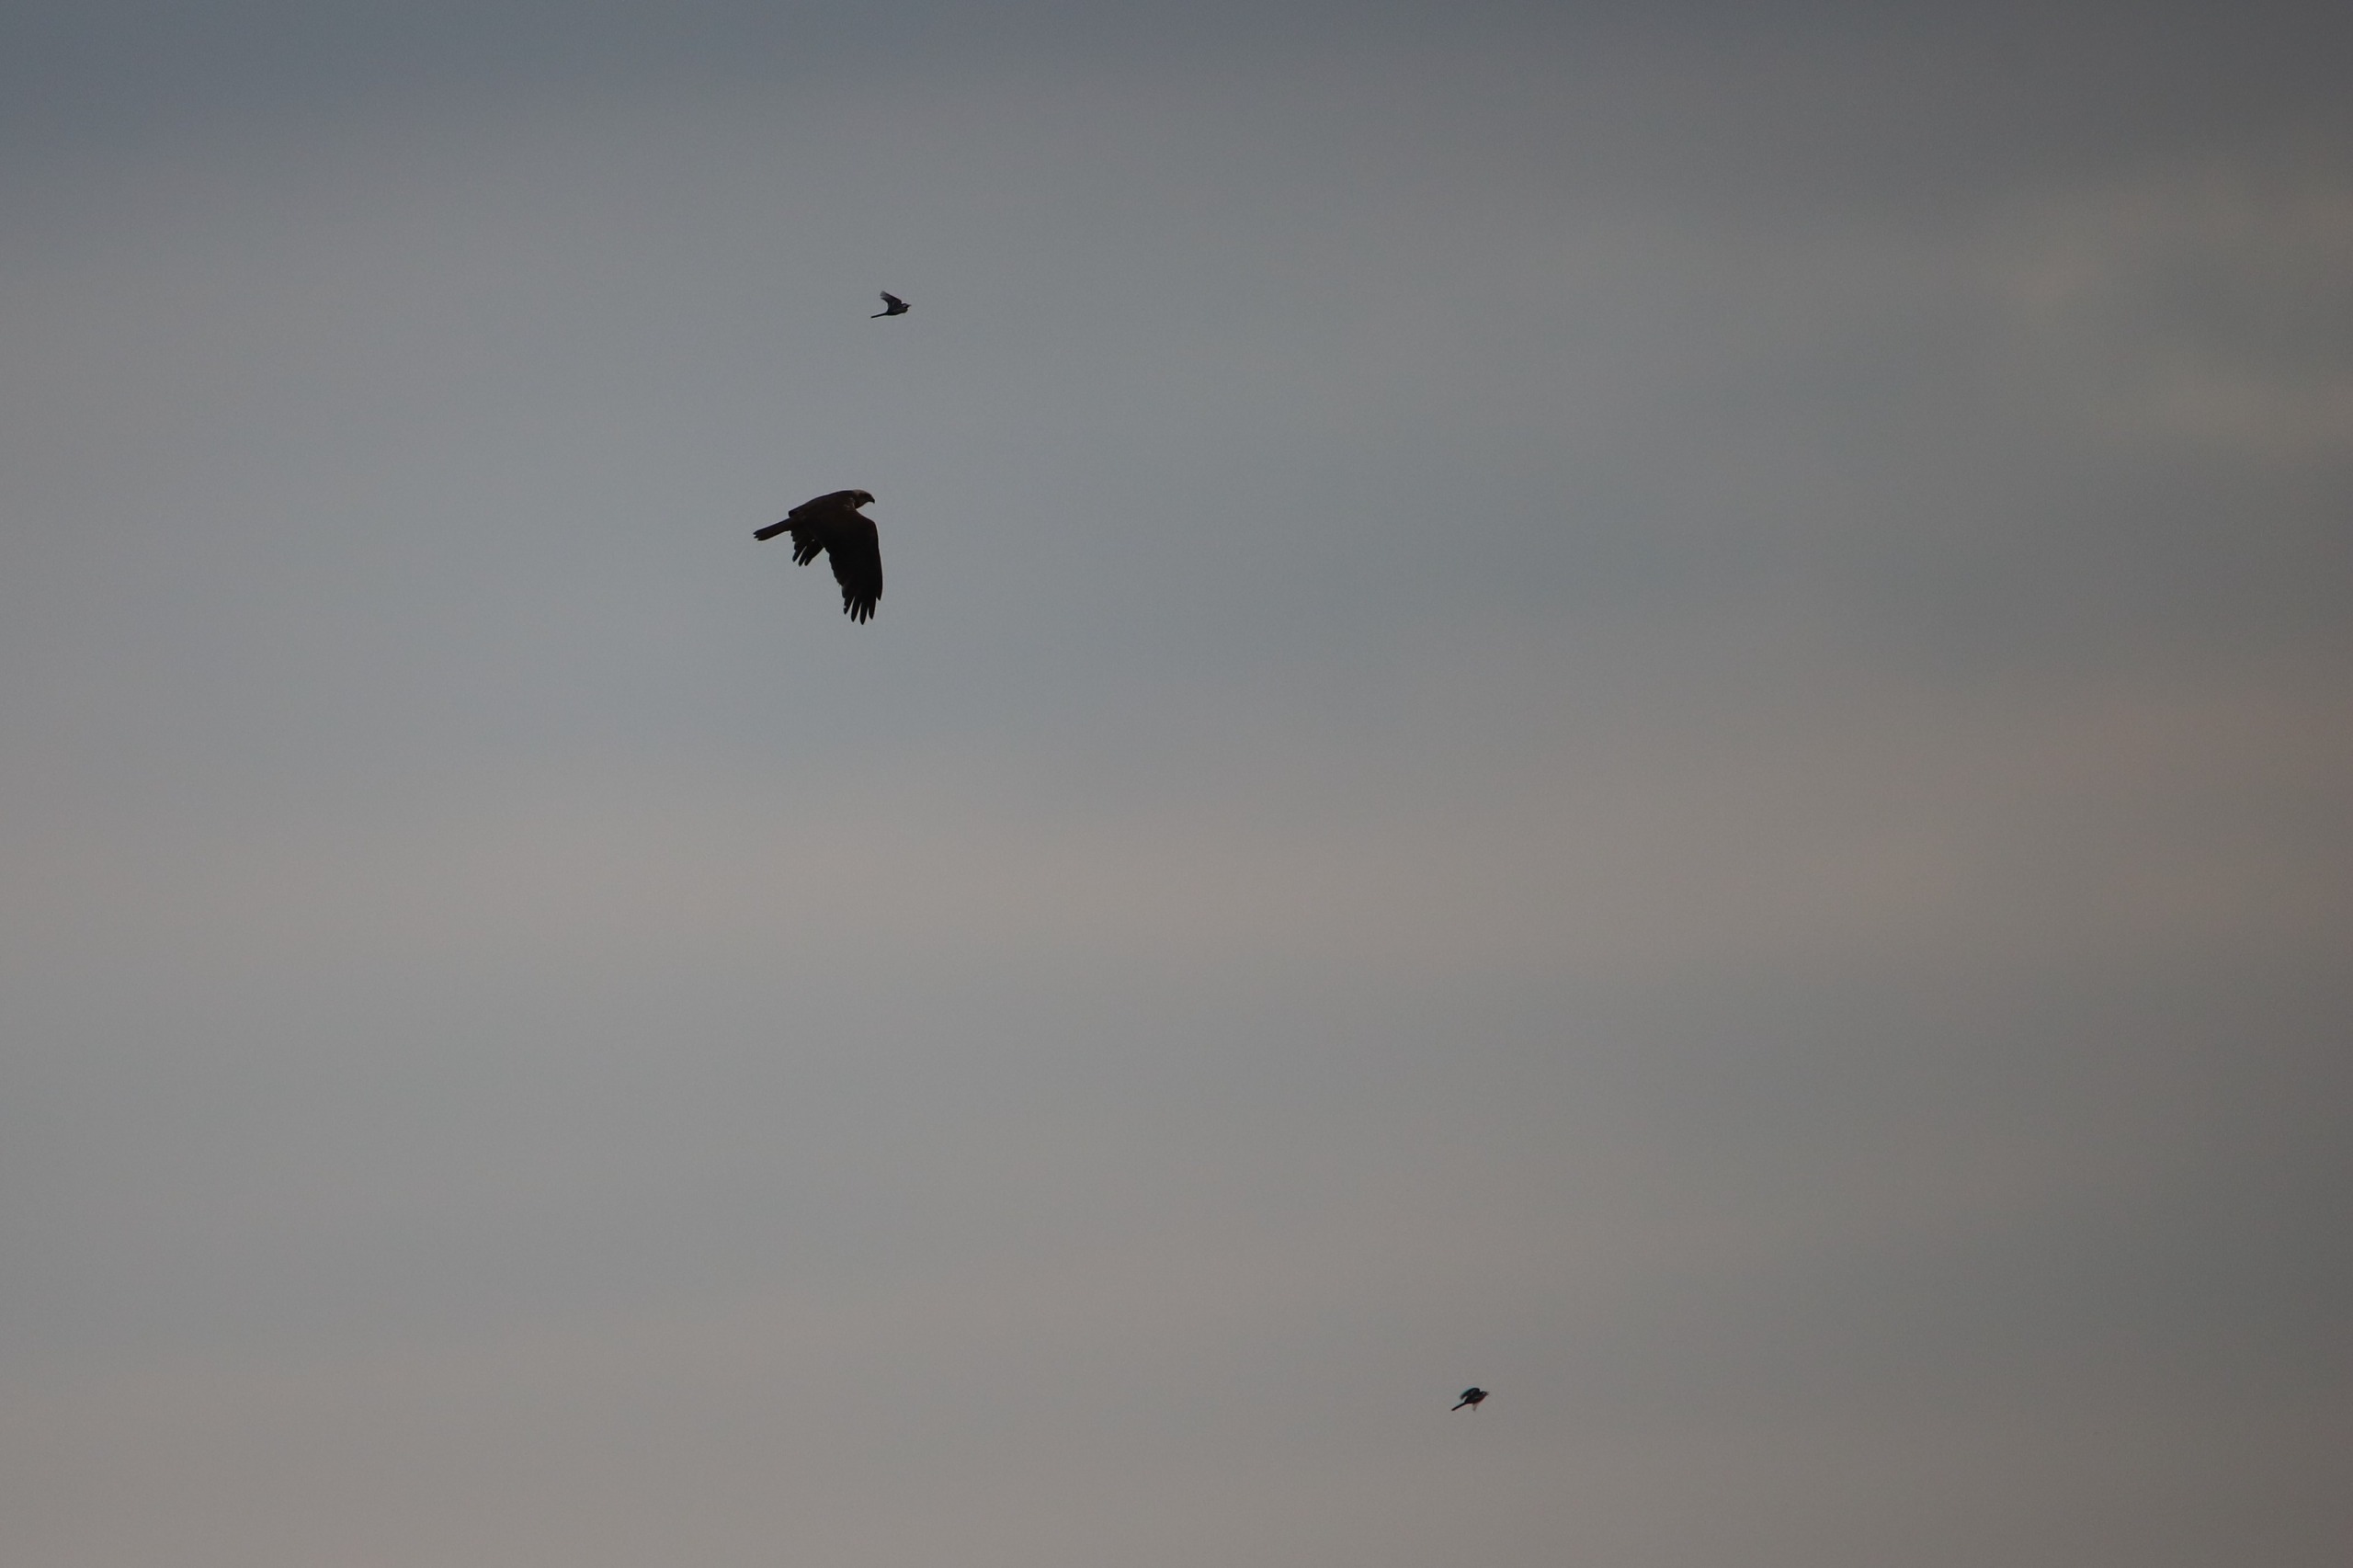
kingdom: Animalia
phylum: Chordata
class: Aves
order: Accipitriformes
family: Accipitridae
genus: Circus
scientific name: Circus aeruginosus
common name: Rørhøg
